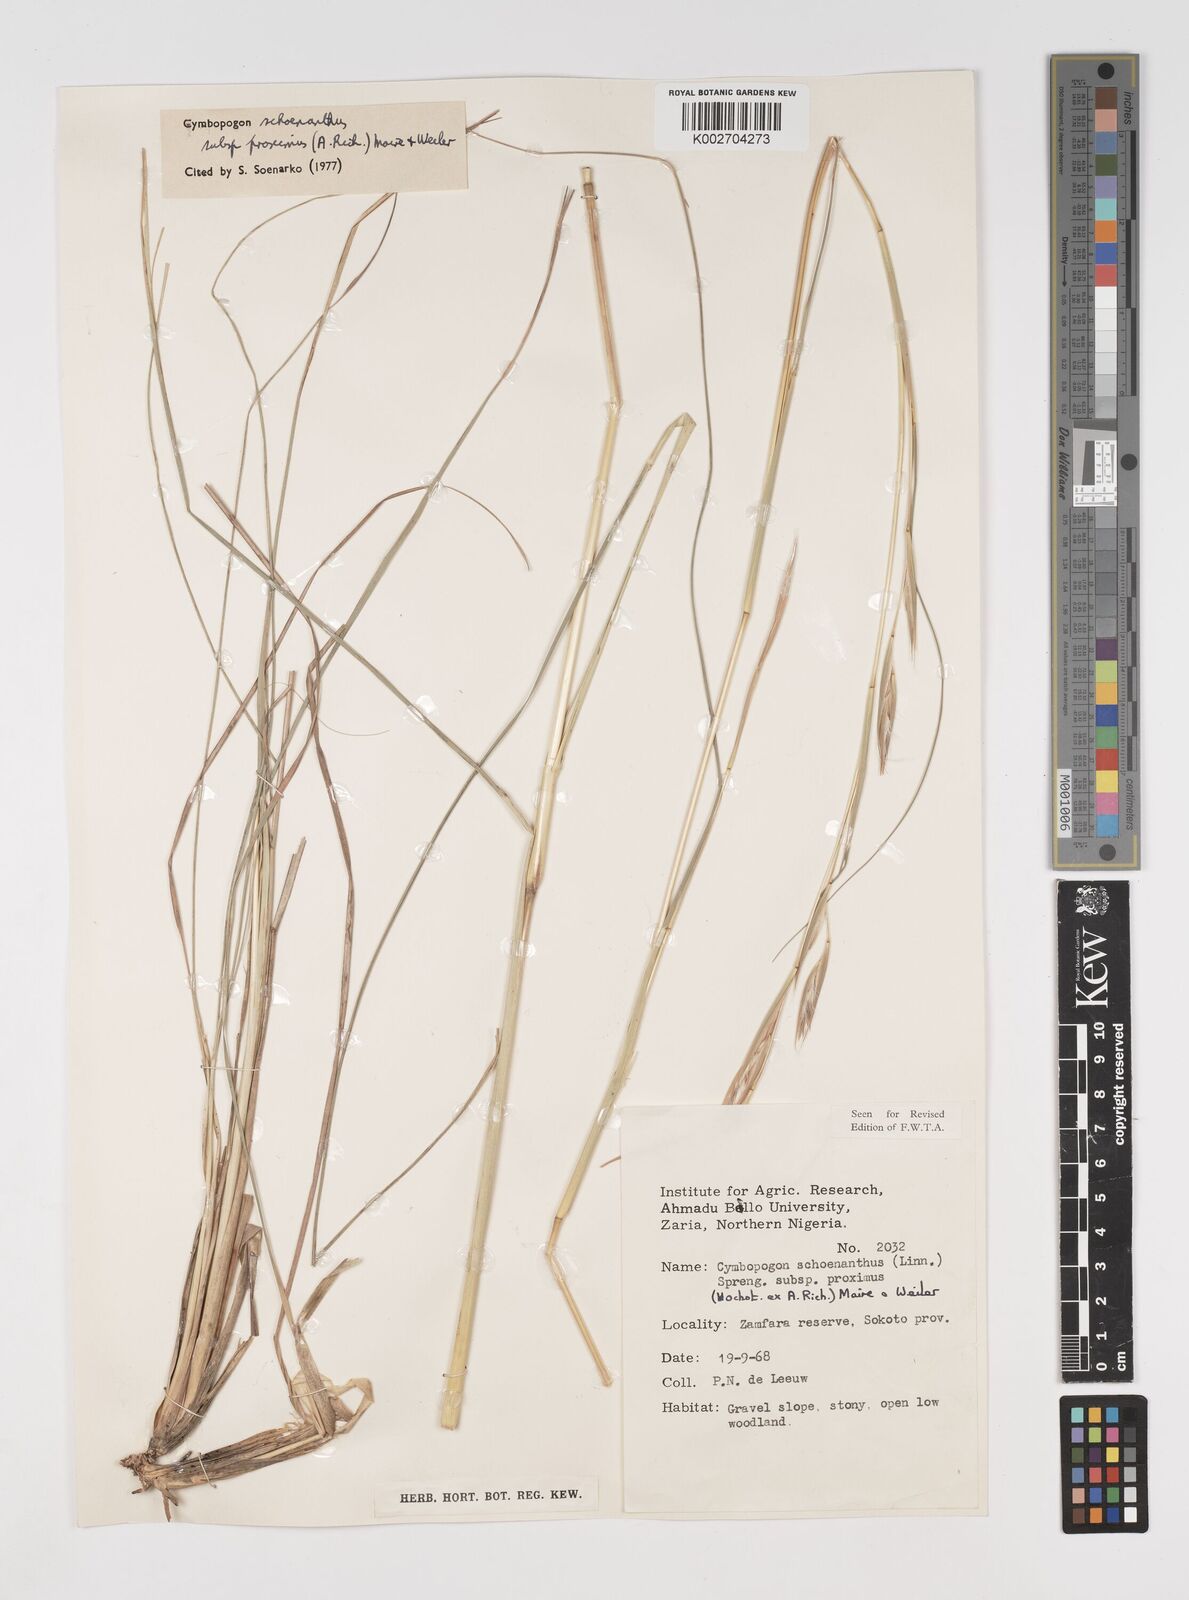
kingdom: Plantae
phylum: Tracheophyta
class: Liliopsida
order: Poales
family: Poaceae
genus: Cymbopogon
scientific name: Cymbopogon schoenanthus
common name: Geranium grass
